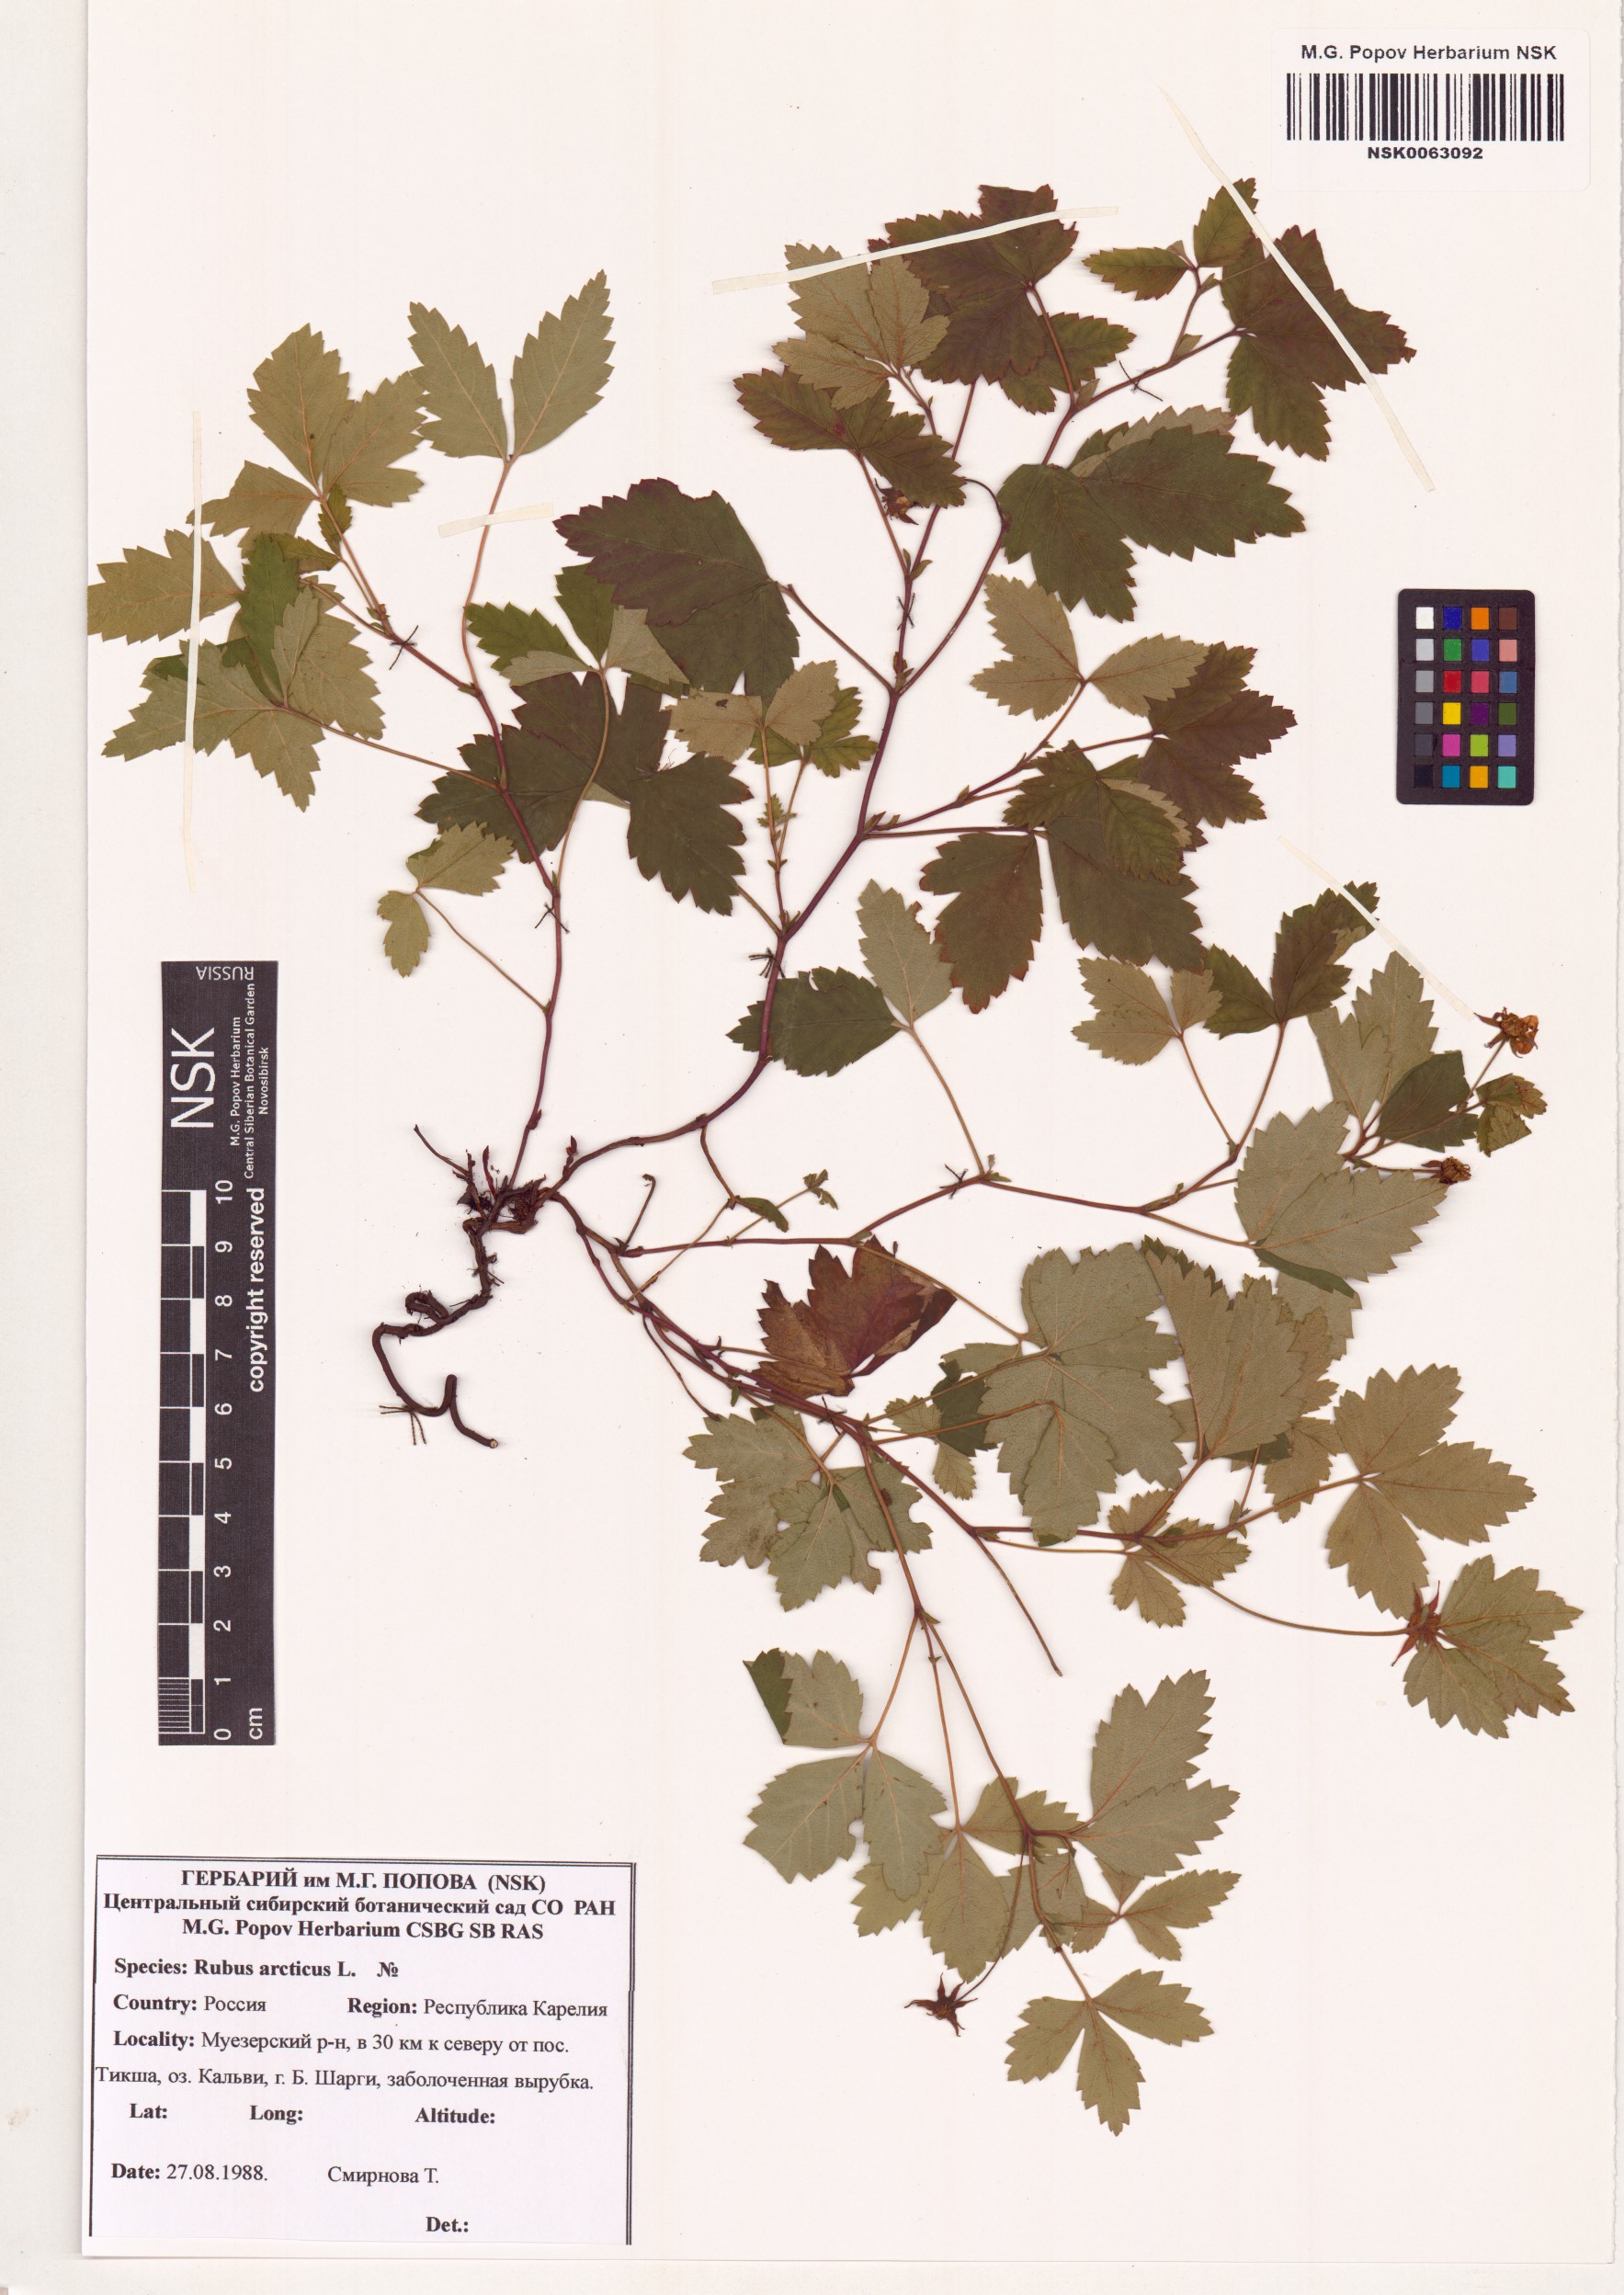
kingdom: Plantae
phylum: Tracheophyta
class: Magnoliopsida
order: Rosales
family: Rosaceae
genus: Rubus
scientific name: Rubus arcticus
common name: Arctic bramble
